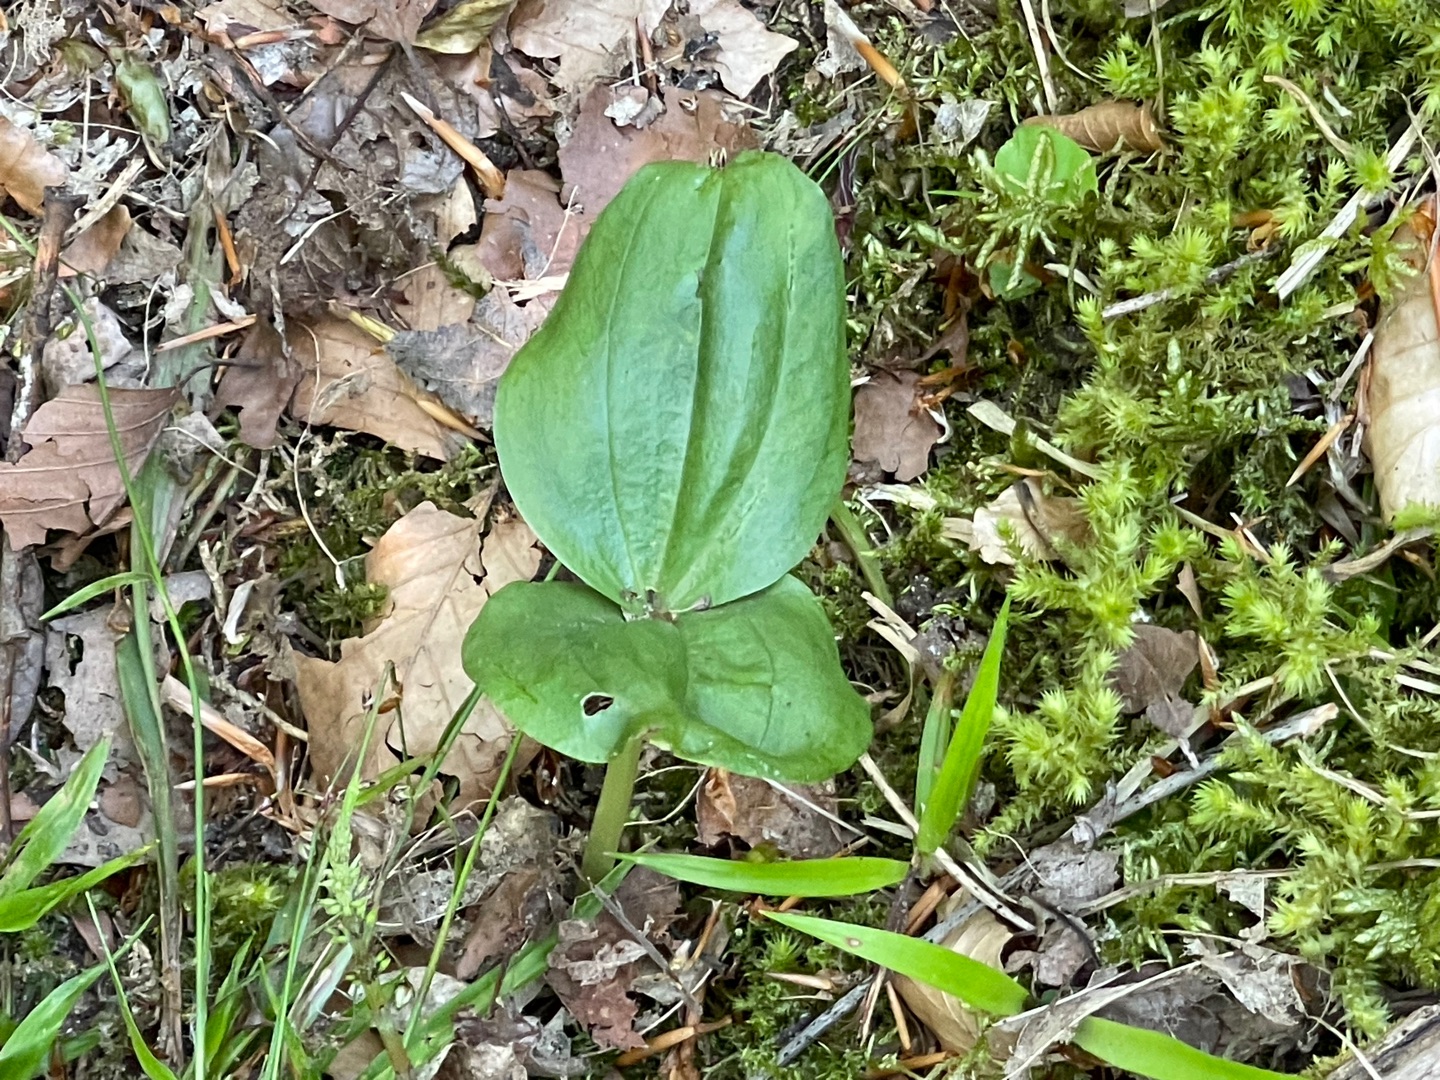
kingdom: Plantae
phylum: Tracheophyta
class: Liliopsida
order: Asparagales
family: Orchidaceae
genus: Neottia
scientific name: Neottia ovata
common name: Ægbladet fliglæbe
